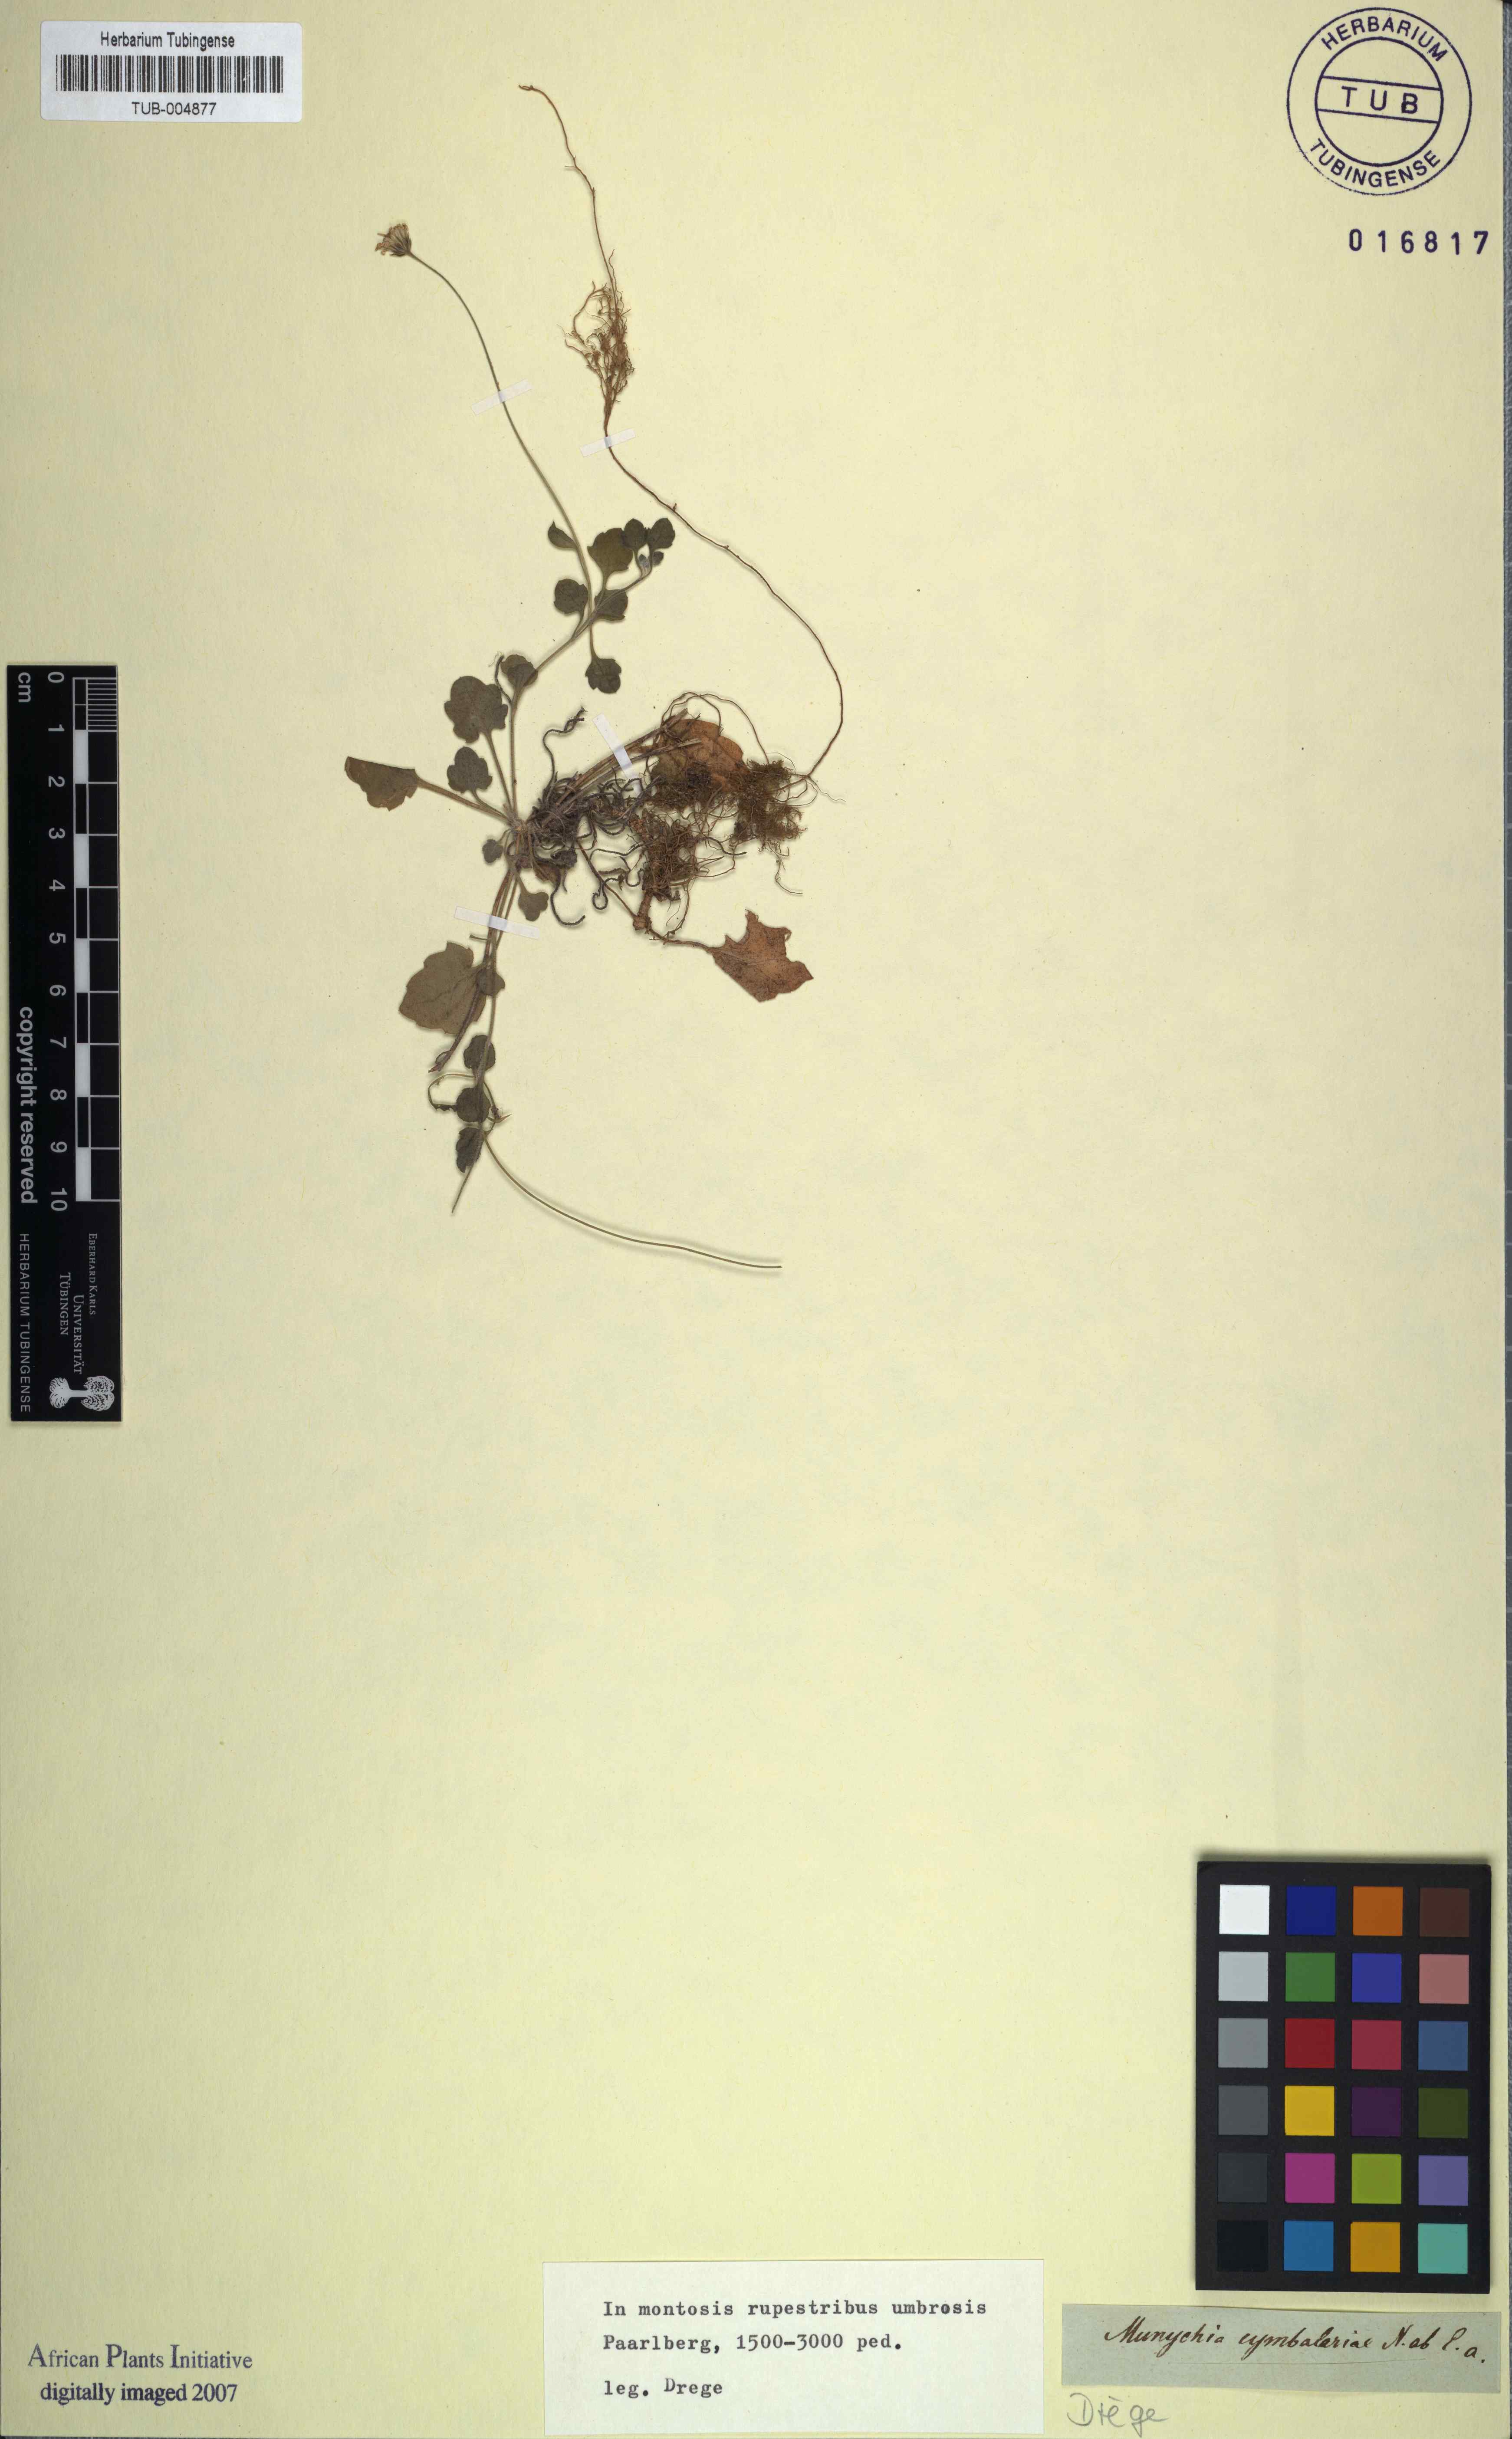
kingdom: Plantae
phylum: Tracheophyta
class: Magnoliopsida
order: Asterales
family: Asteraceae
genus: Felicia
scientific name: Felicia cymbalariae
